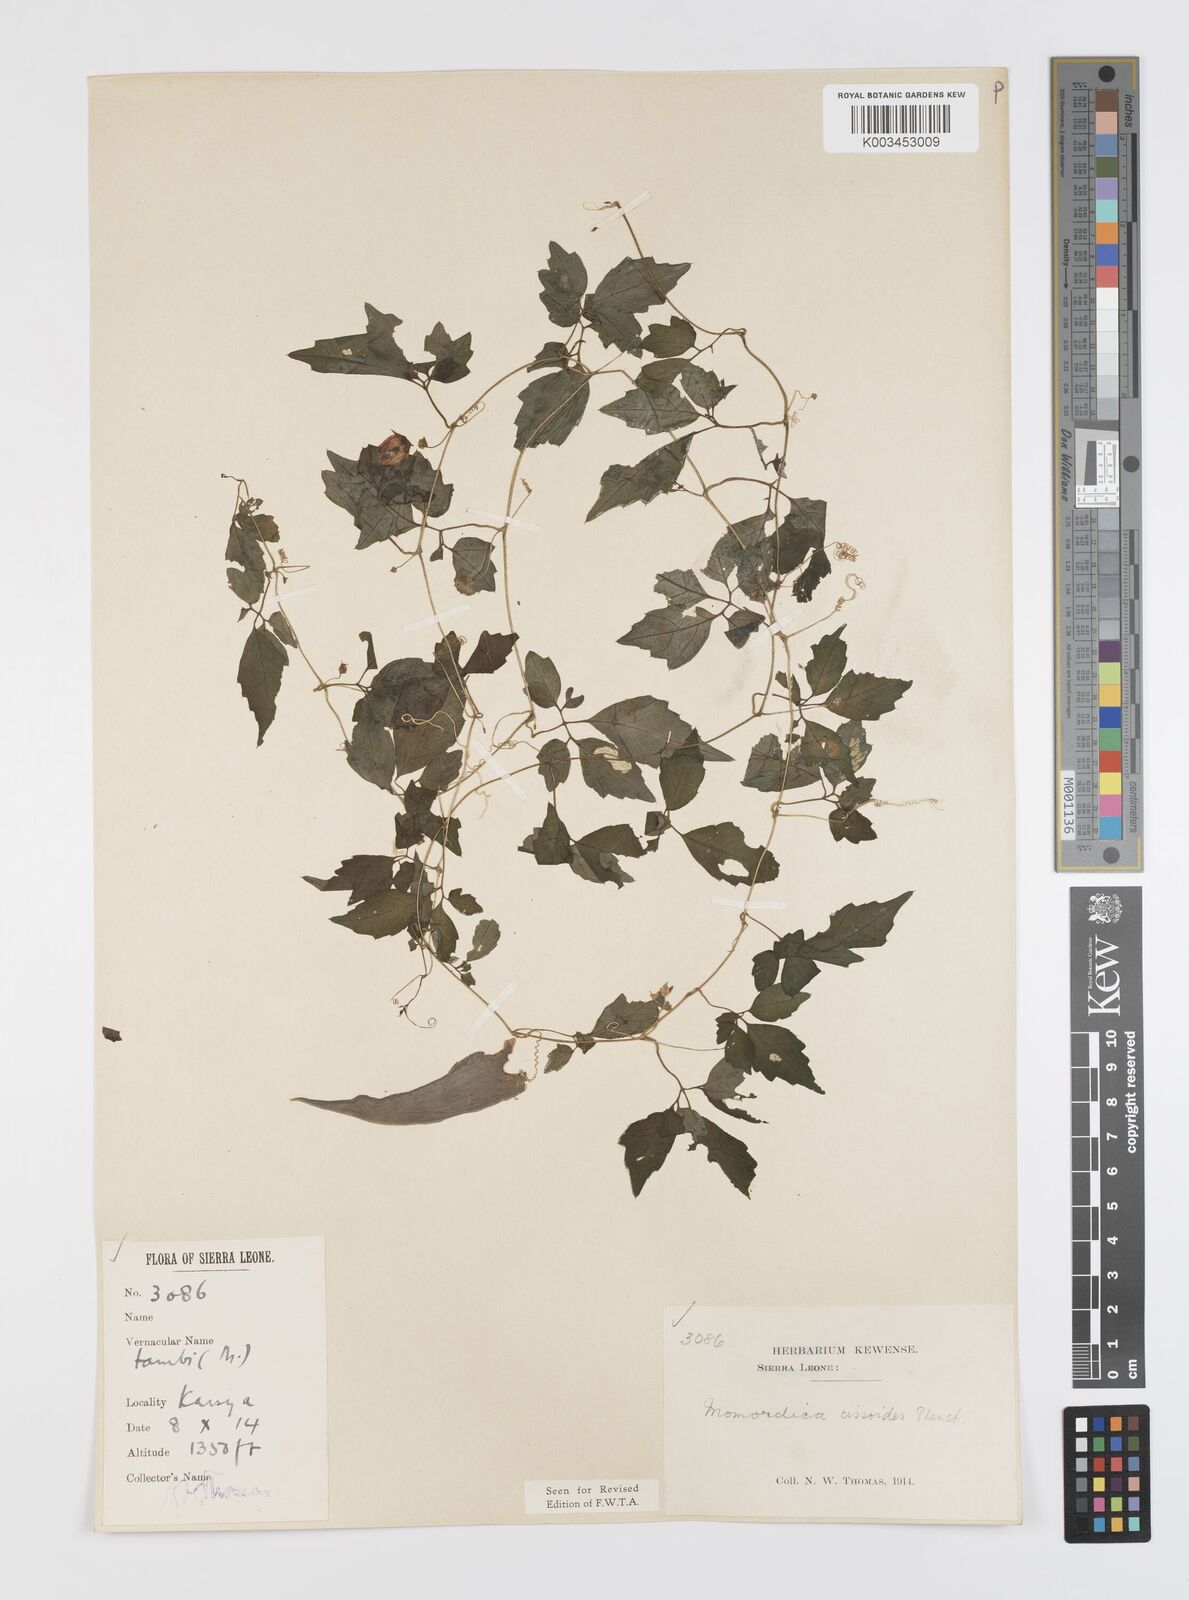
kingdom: Plantae
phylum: Tracheophyta
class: Magnoliopsida
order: Cucurbitales
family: Cucurbitaceae
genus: Momordica
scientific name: Momordica cissoides
